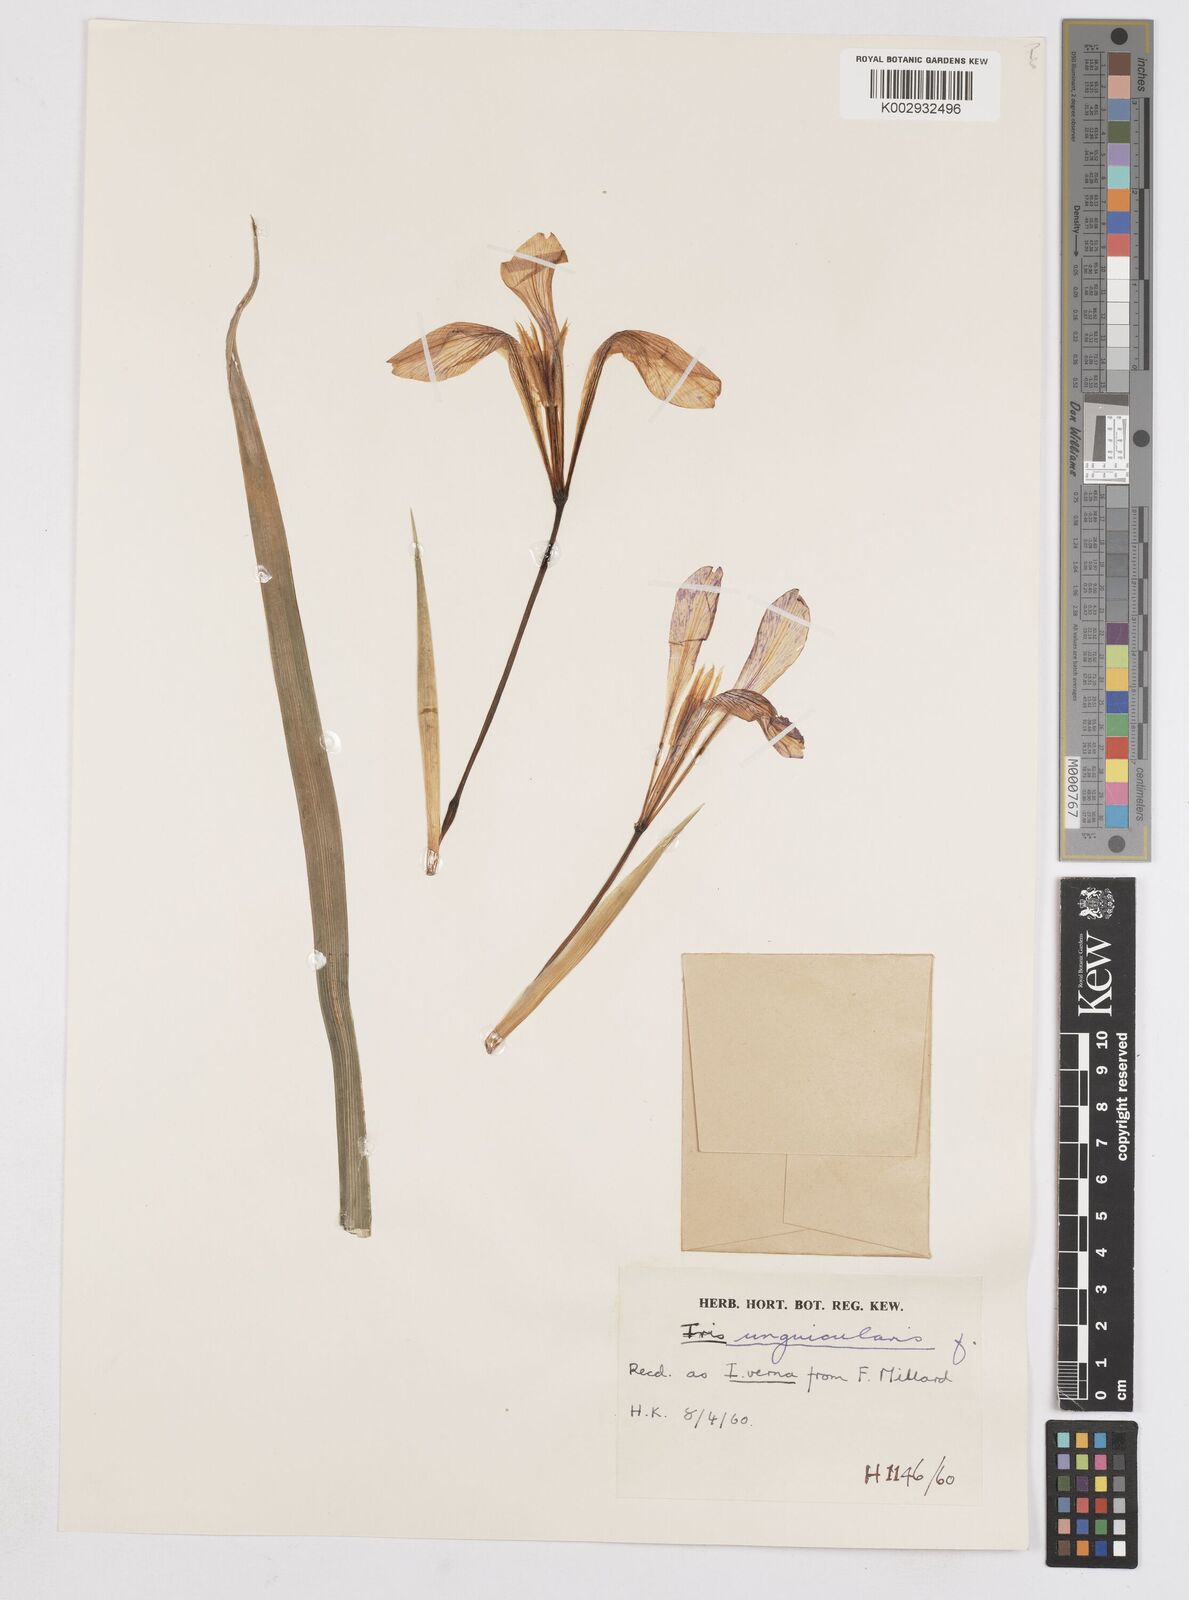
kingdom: Plantae
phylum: Tracheophyta
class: Liliopsida
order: Asparagales
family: Iridaceae
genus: Iris
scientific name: Iris unguicularis
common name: Algerian iris
